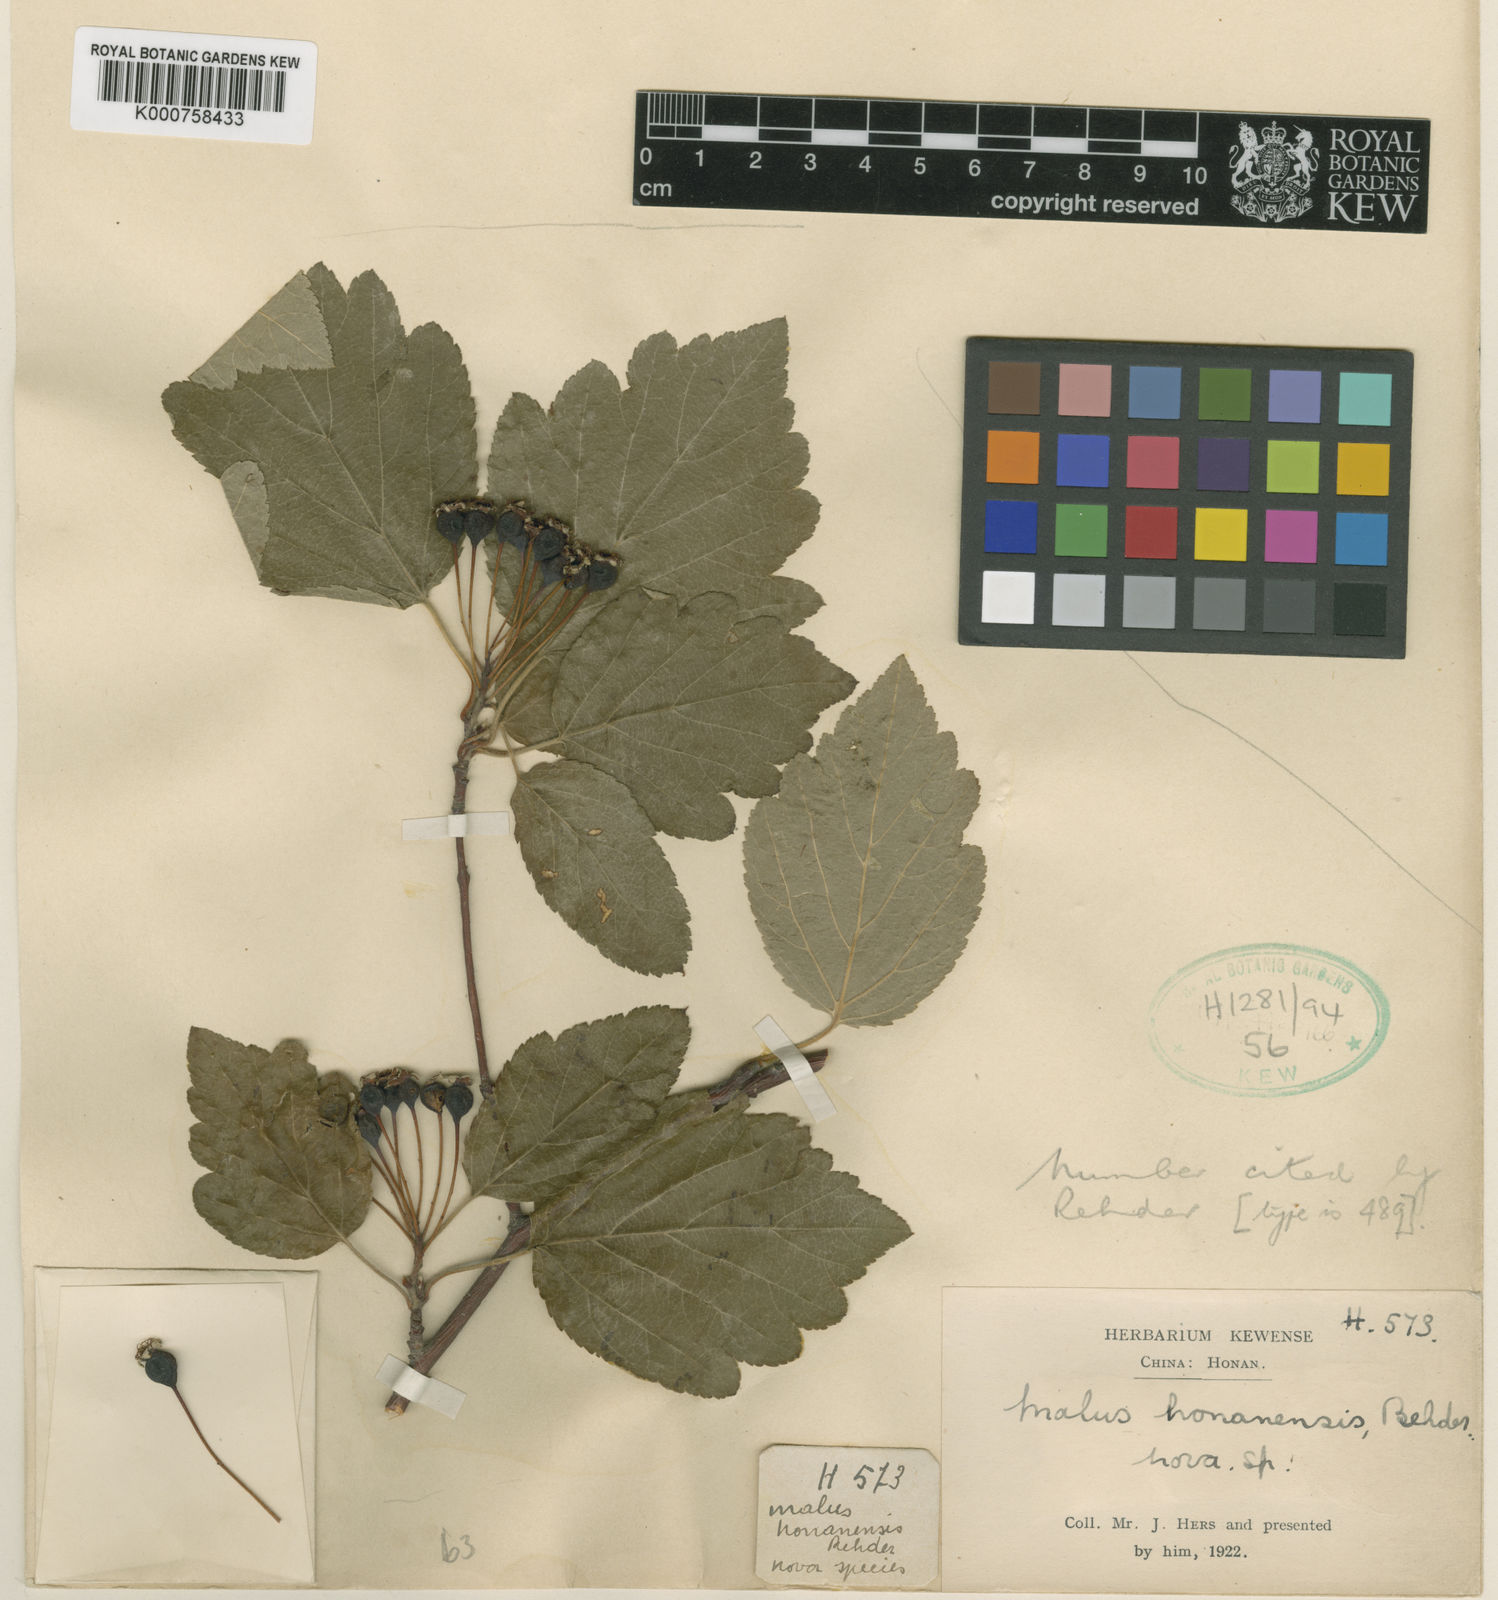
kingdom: Plantae
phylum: Tracheophyta
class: Magnoliopsida
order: Rosales
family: Rosaceae
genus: Malus
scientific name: Malus honanensis
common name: Honan crab apple
